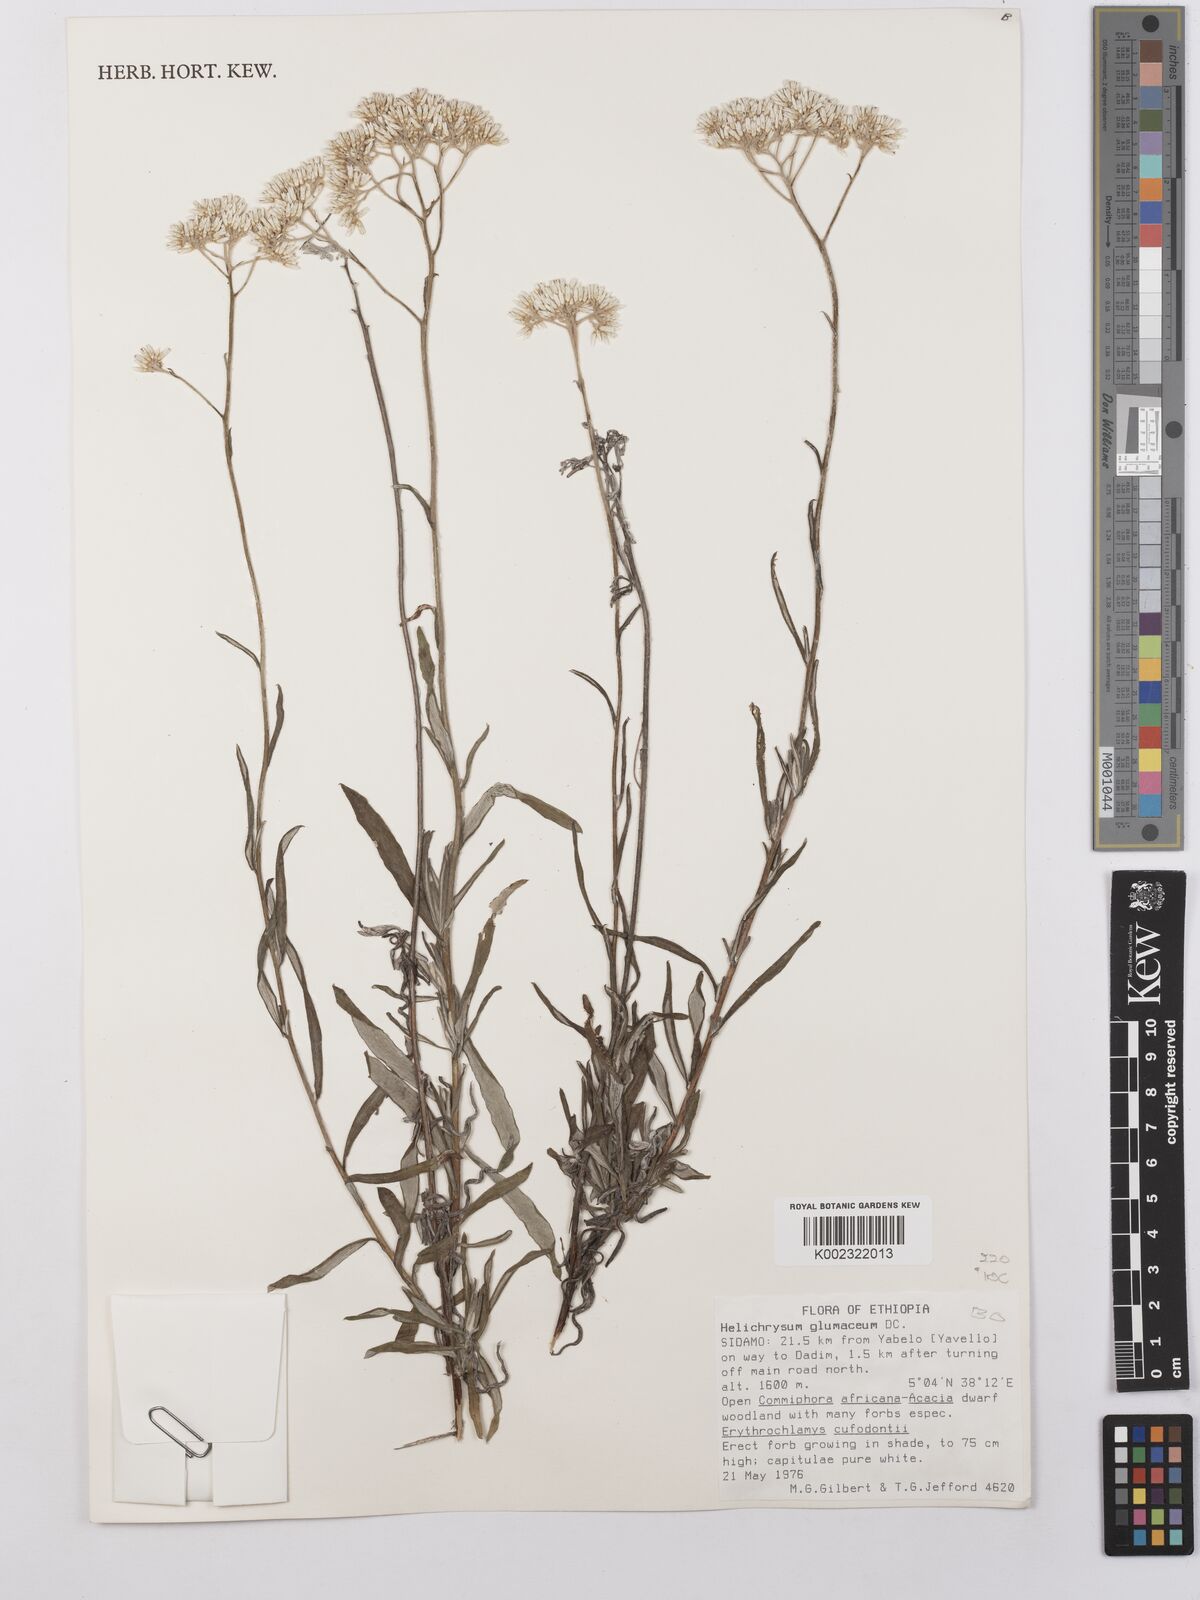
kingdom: Plantae
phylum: Tracheophyta
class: Magnoliopsida
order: Asterales
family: Asteraceae
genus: Helichrysum
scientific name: Helichrysum glumaceum
